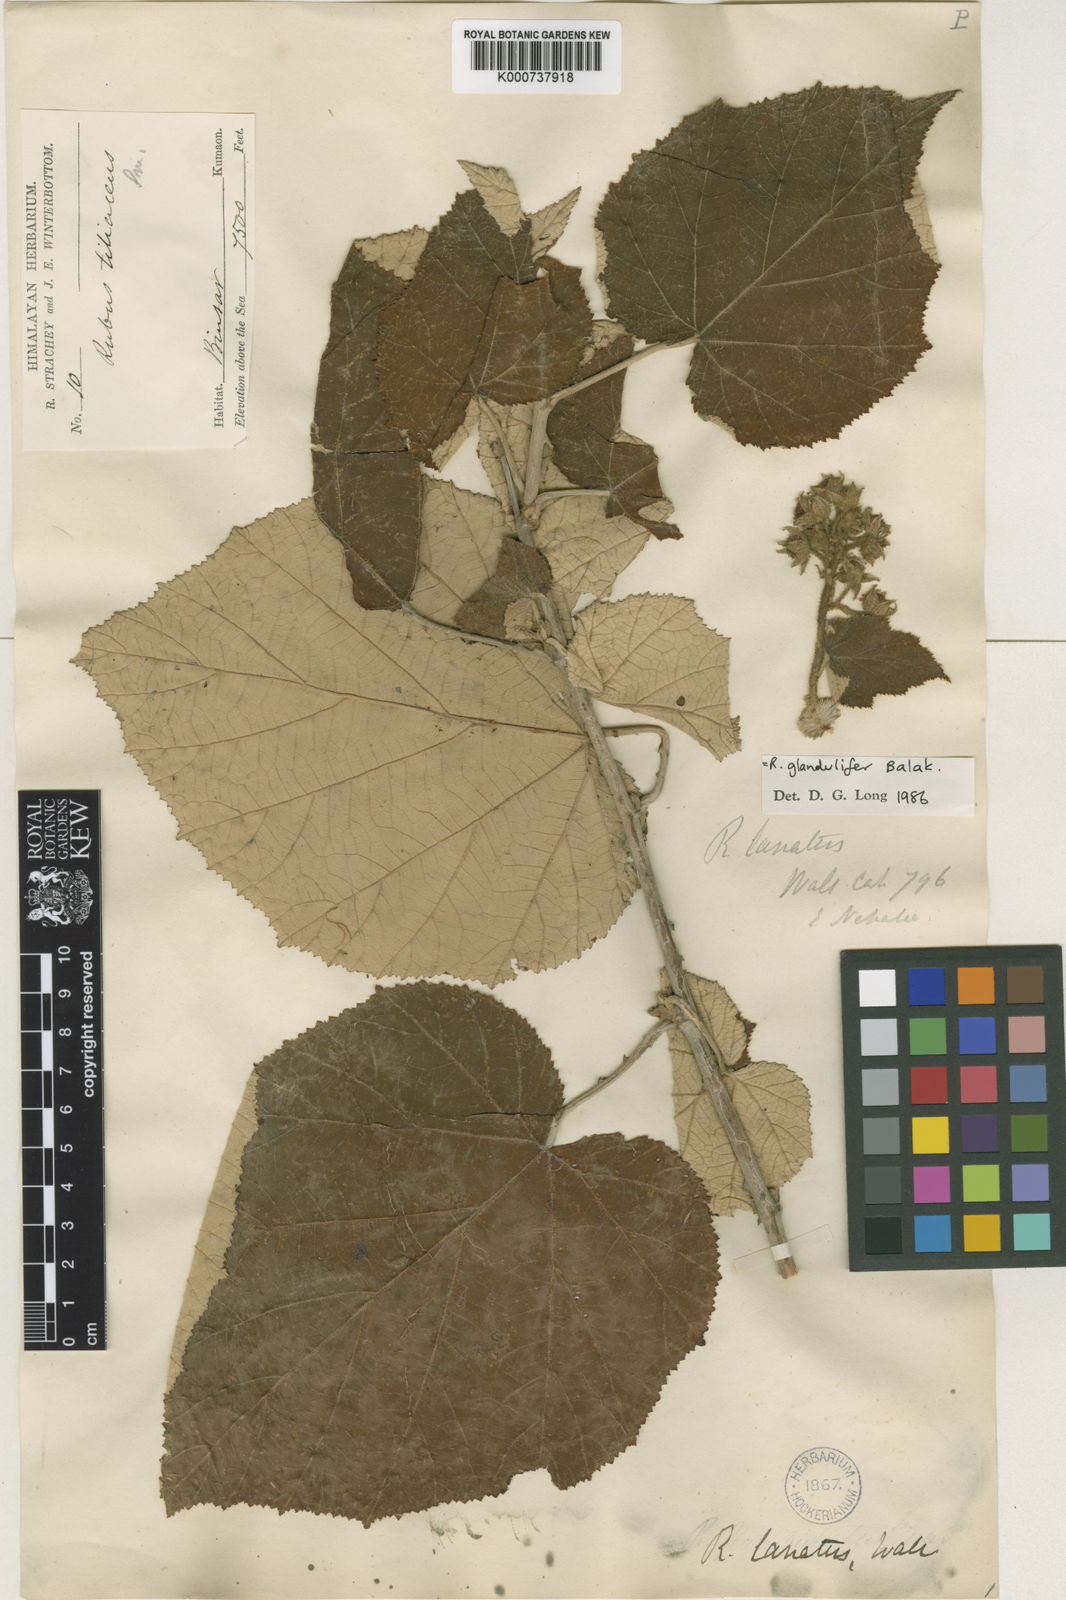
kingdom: Plantae
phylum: Tracheophyta
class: Magnoliopsida
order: Rosales
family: Rosaceae
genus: Rubus
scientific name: Rubus vestitus
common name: European blackberry
